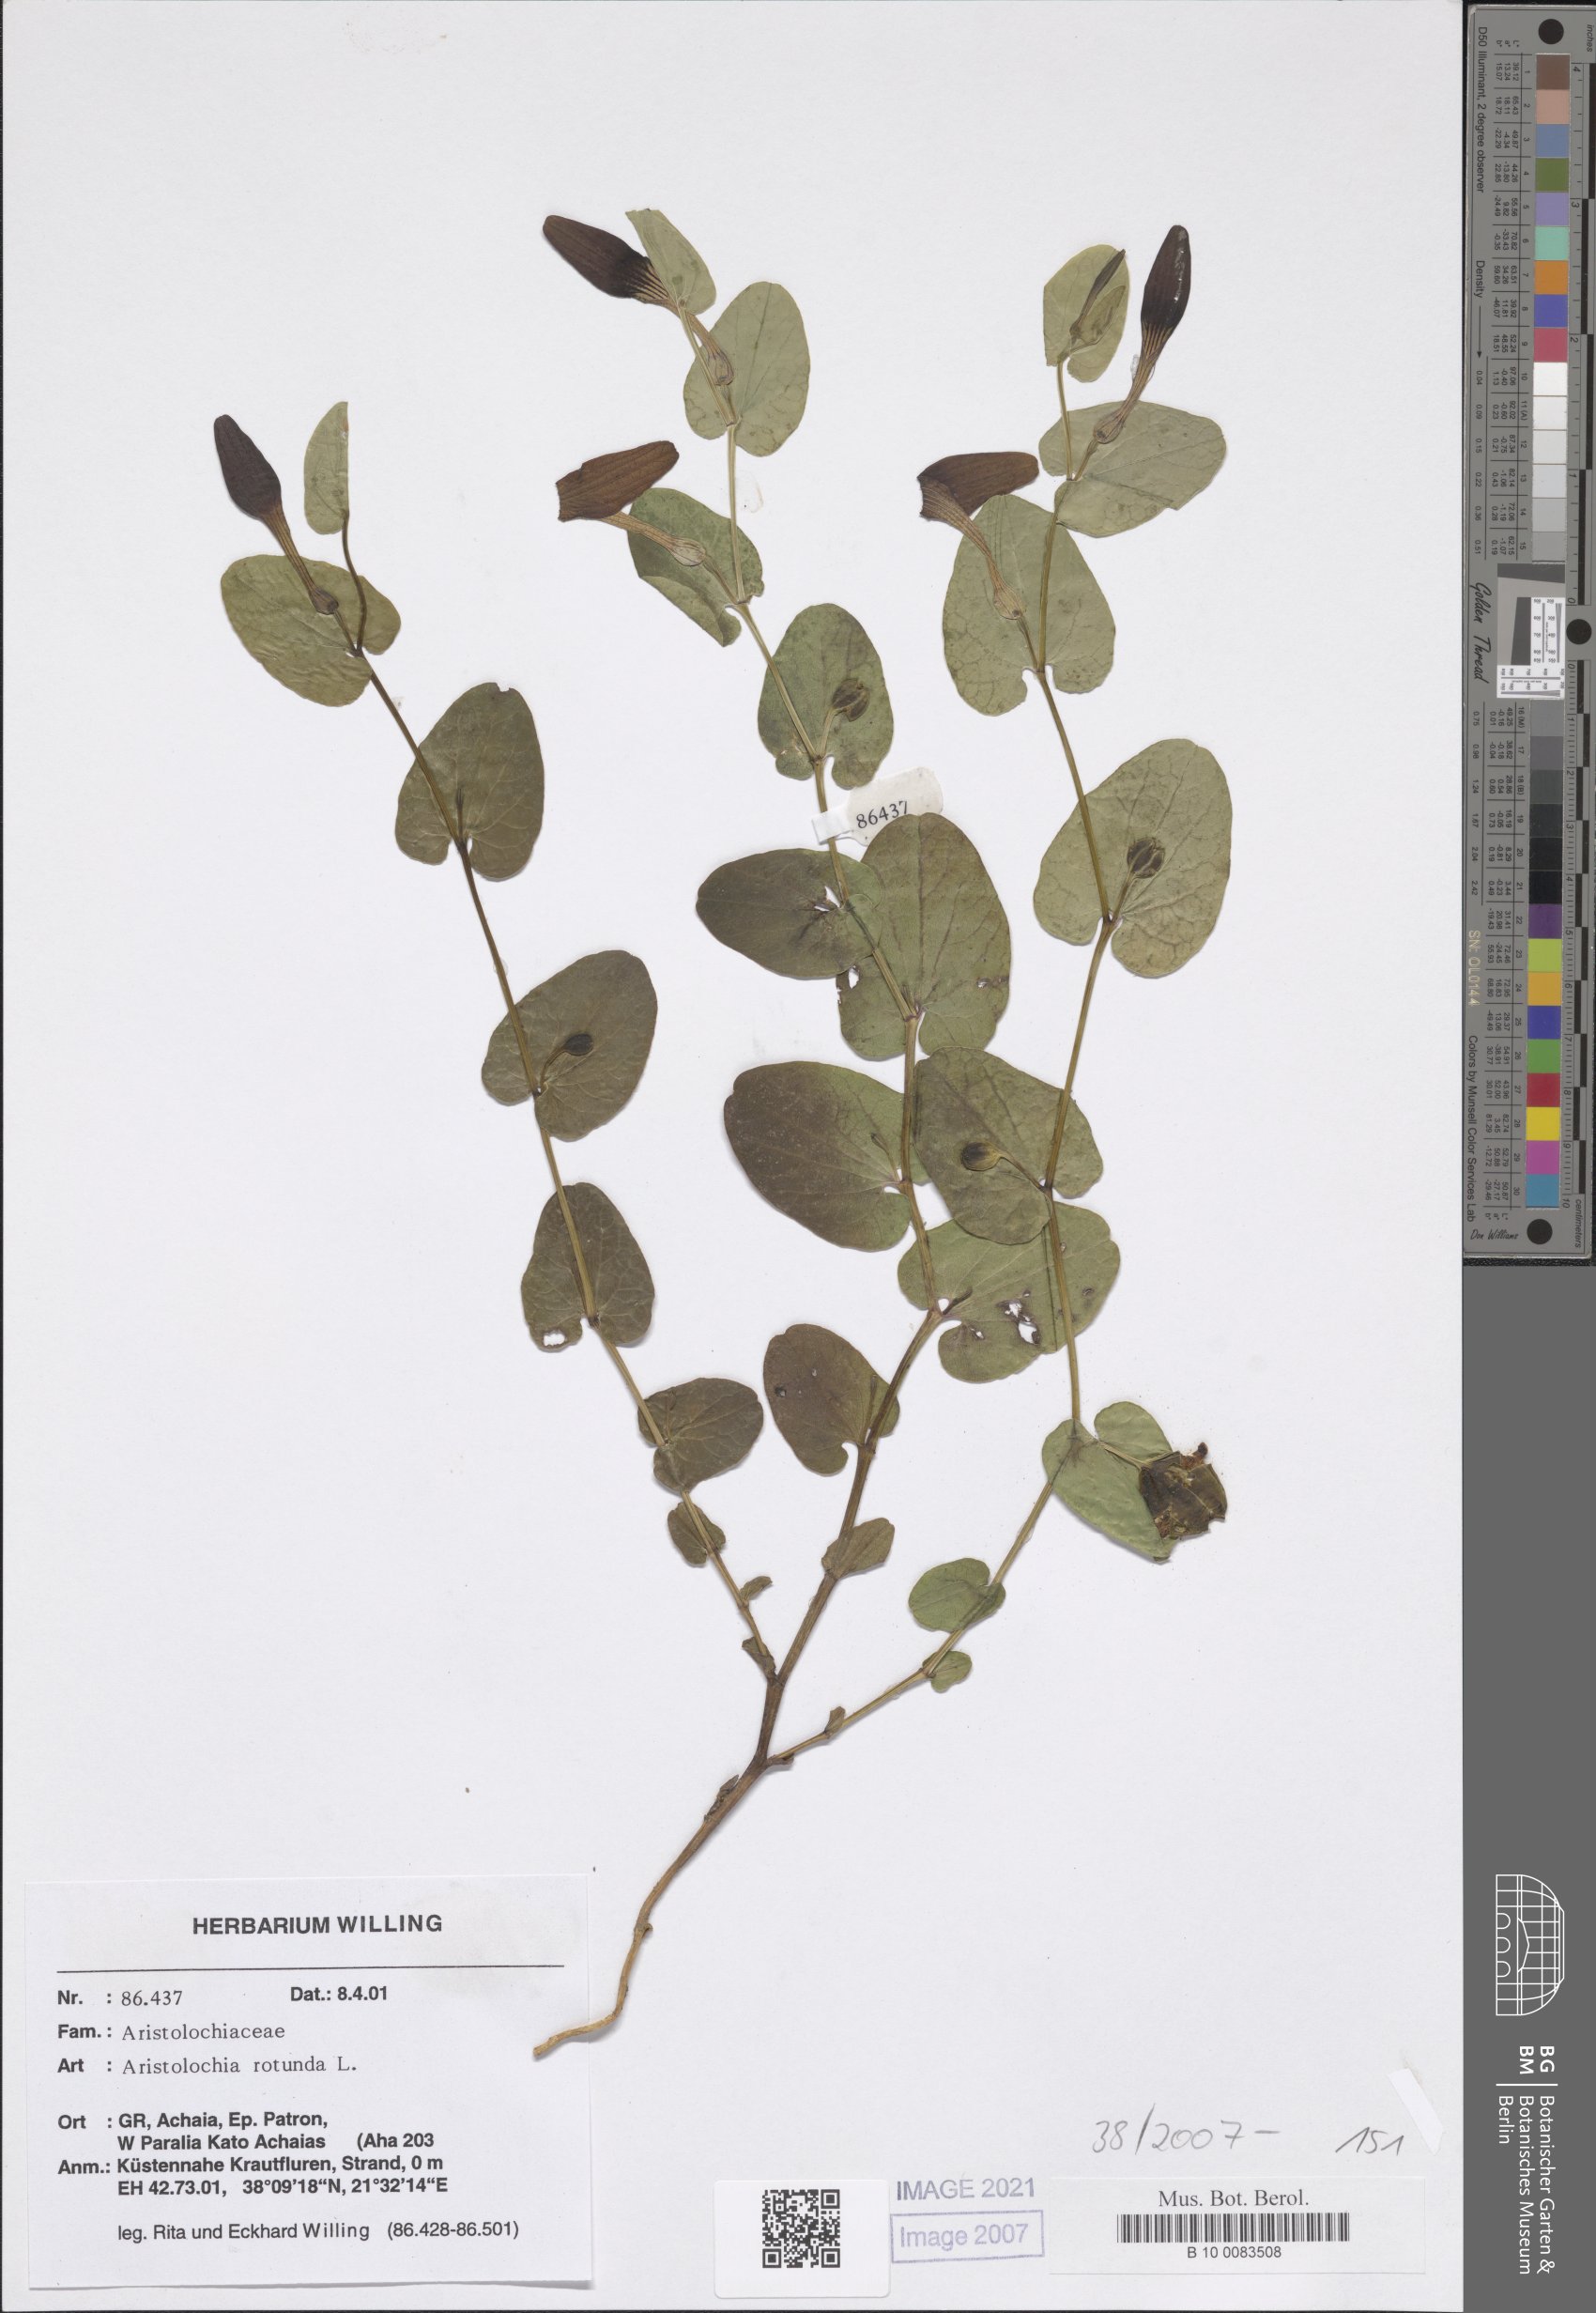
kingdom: Plantae
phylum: Tracheophyta
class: Magnoliopsida
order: Piperales
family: Aristolochiaceae
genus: Aristolochia
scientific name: Aristolochia rotunda
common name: Smearwort
